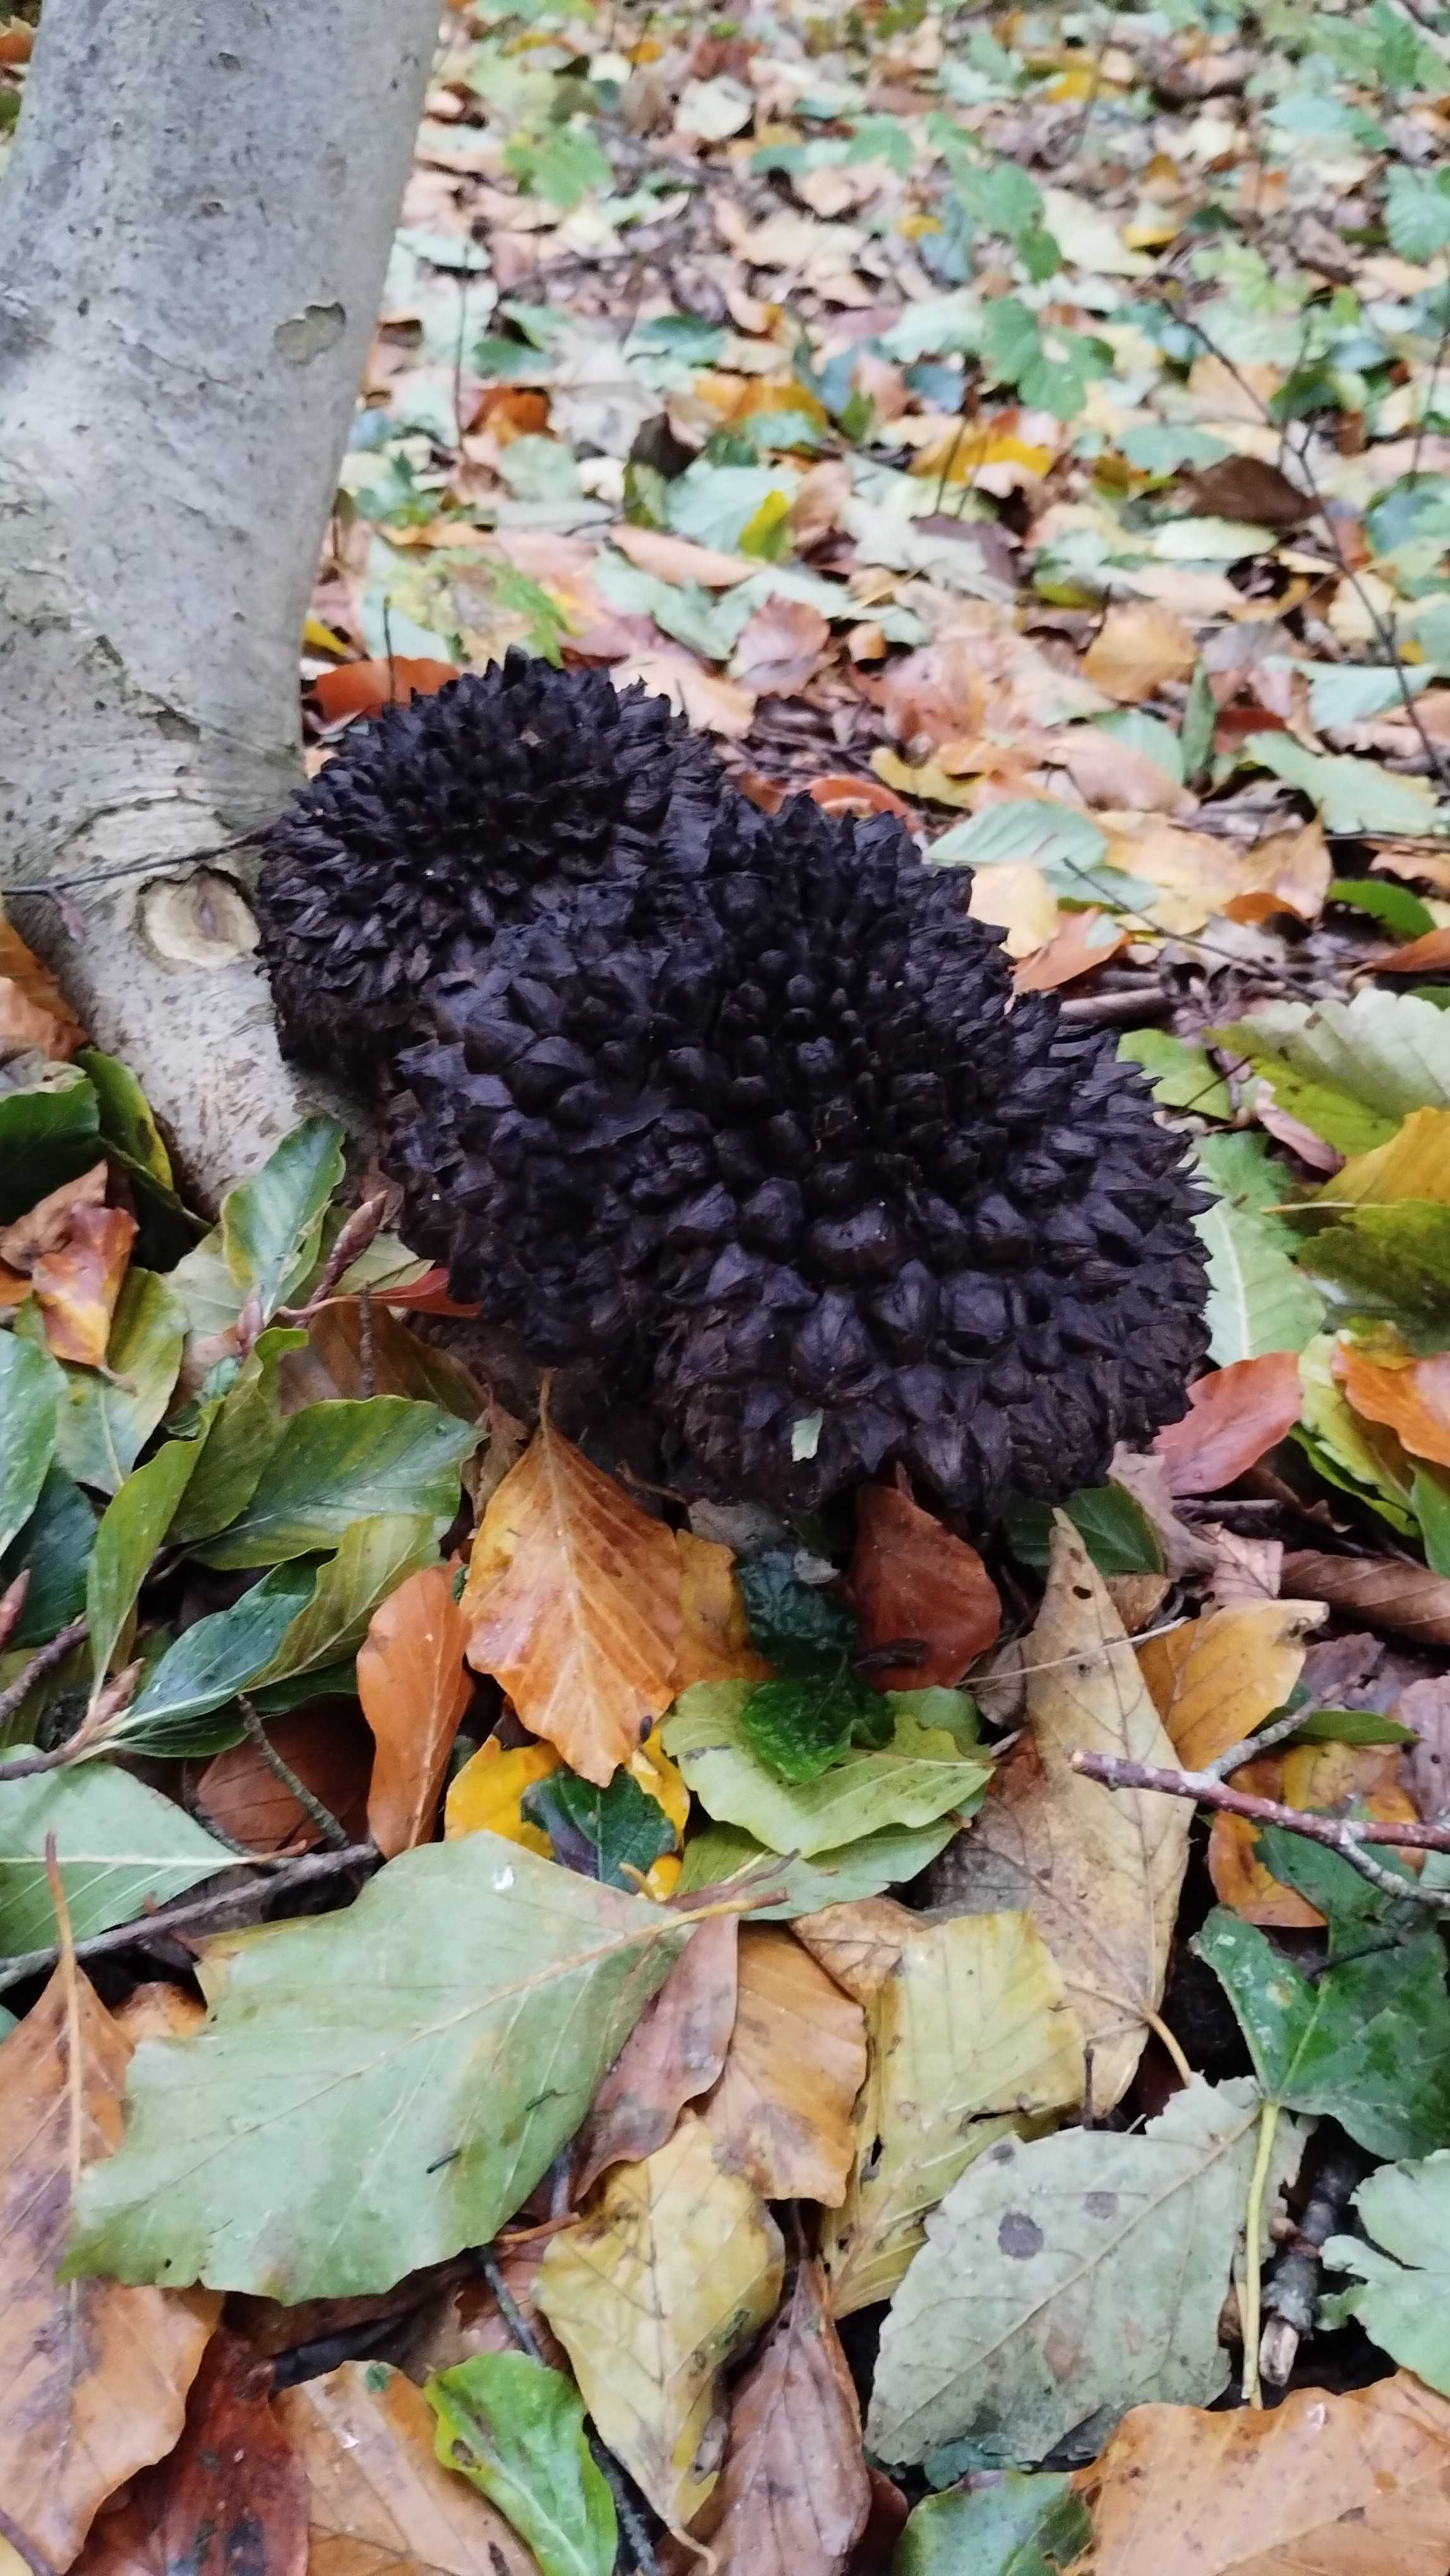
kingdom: Fungi
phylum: Basidiomycota
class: Agaricomycetes
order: Boletales
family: Boletaceae
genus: Strobilomyces
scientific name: Strobilomyces strobilaceus
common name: koglerørhat
